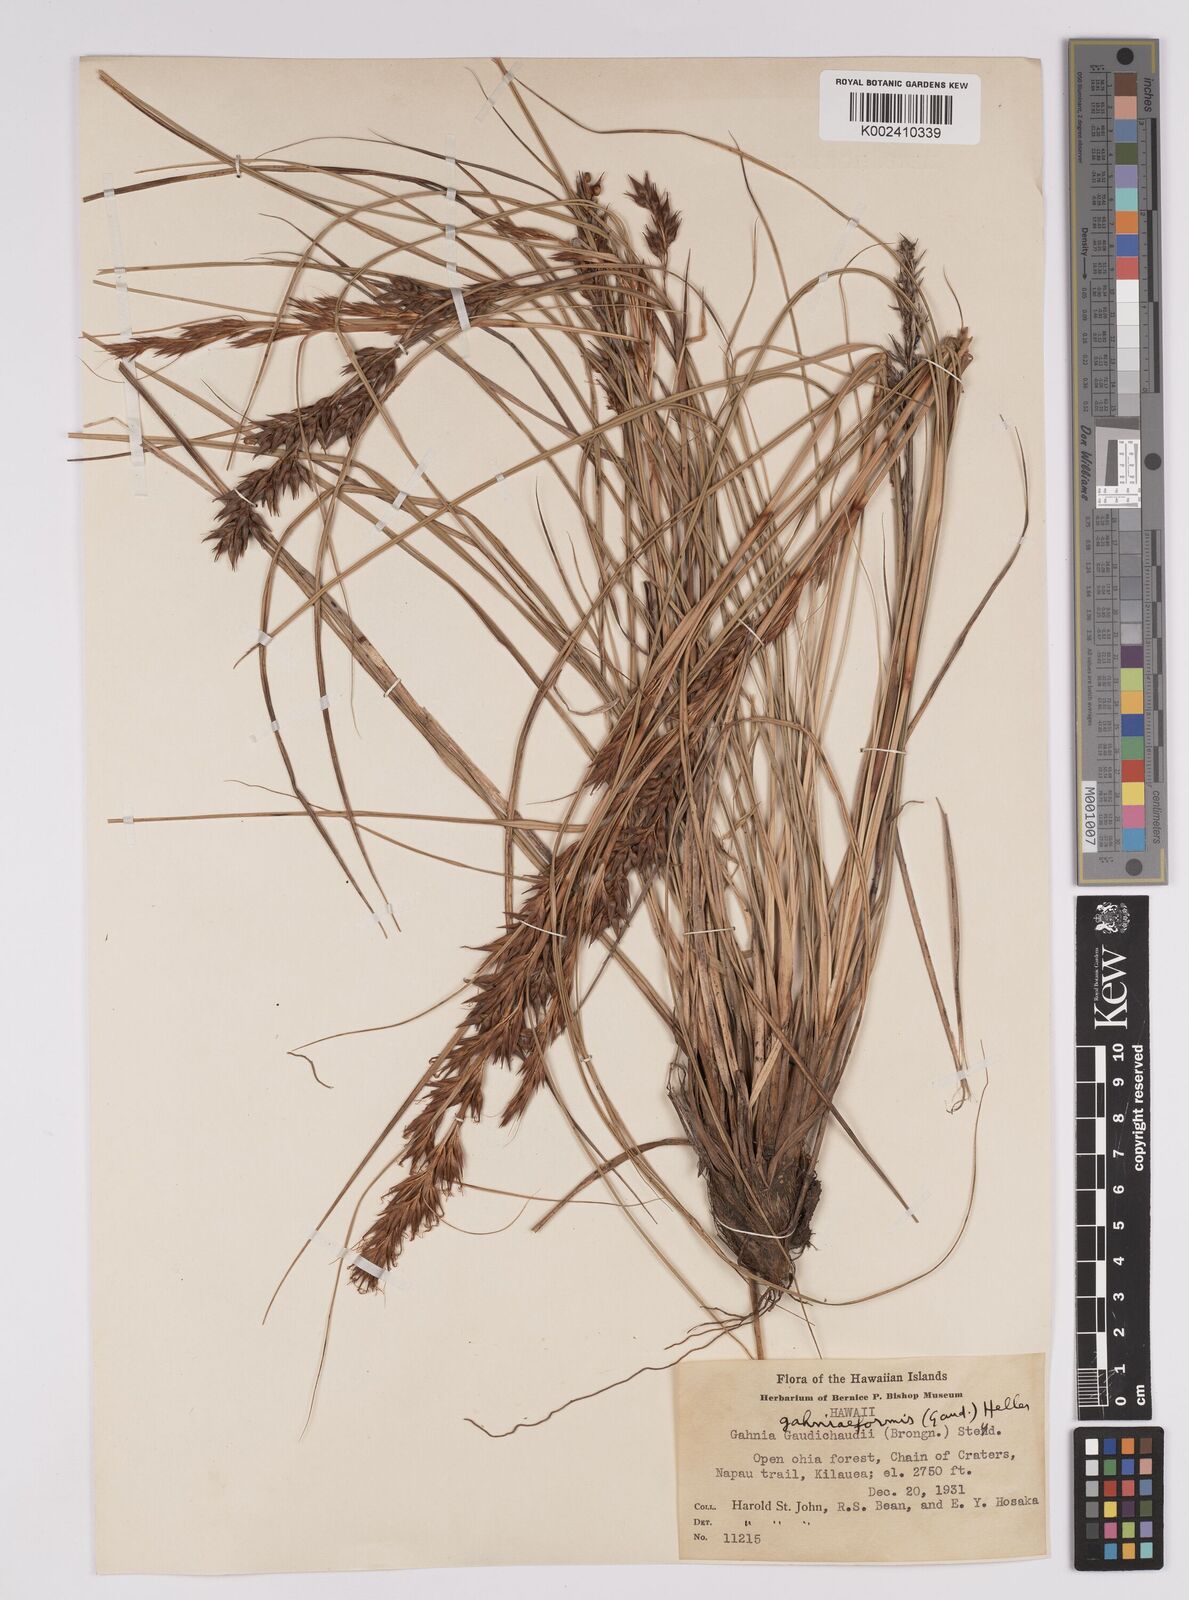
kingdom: Plantae
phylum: Tracheophyta
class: Liliopsida
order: Poales
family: Cyperaceae
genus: Morelotia
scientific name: Morelotia gahniiformis
